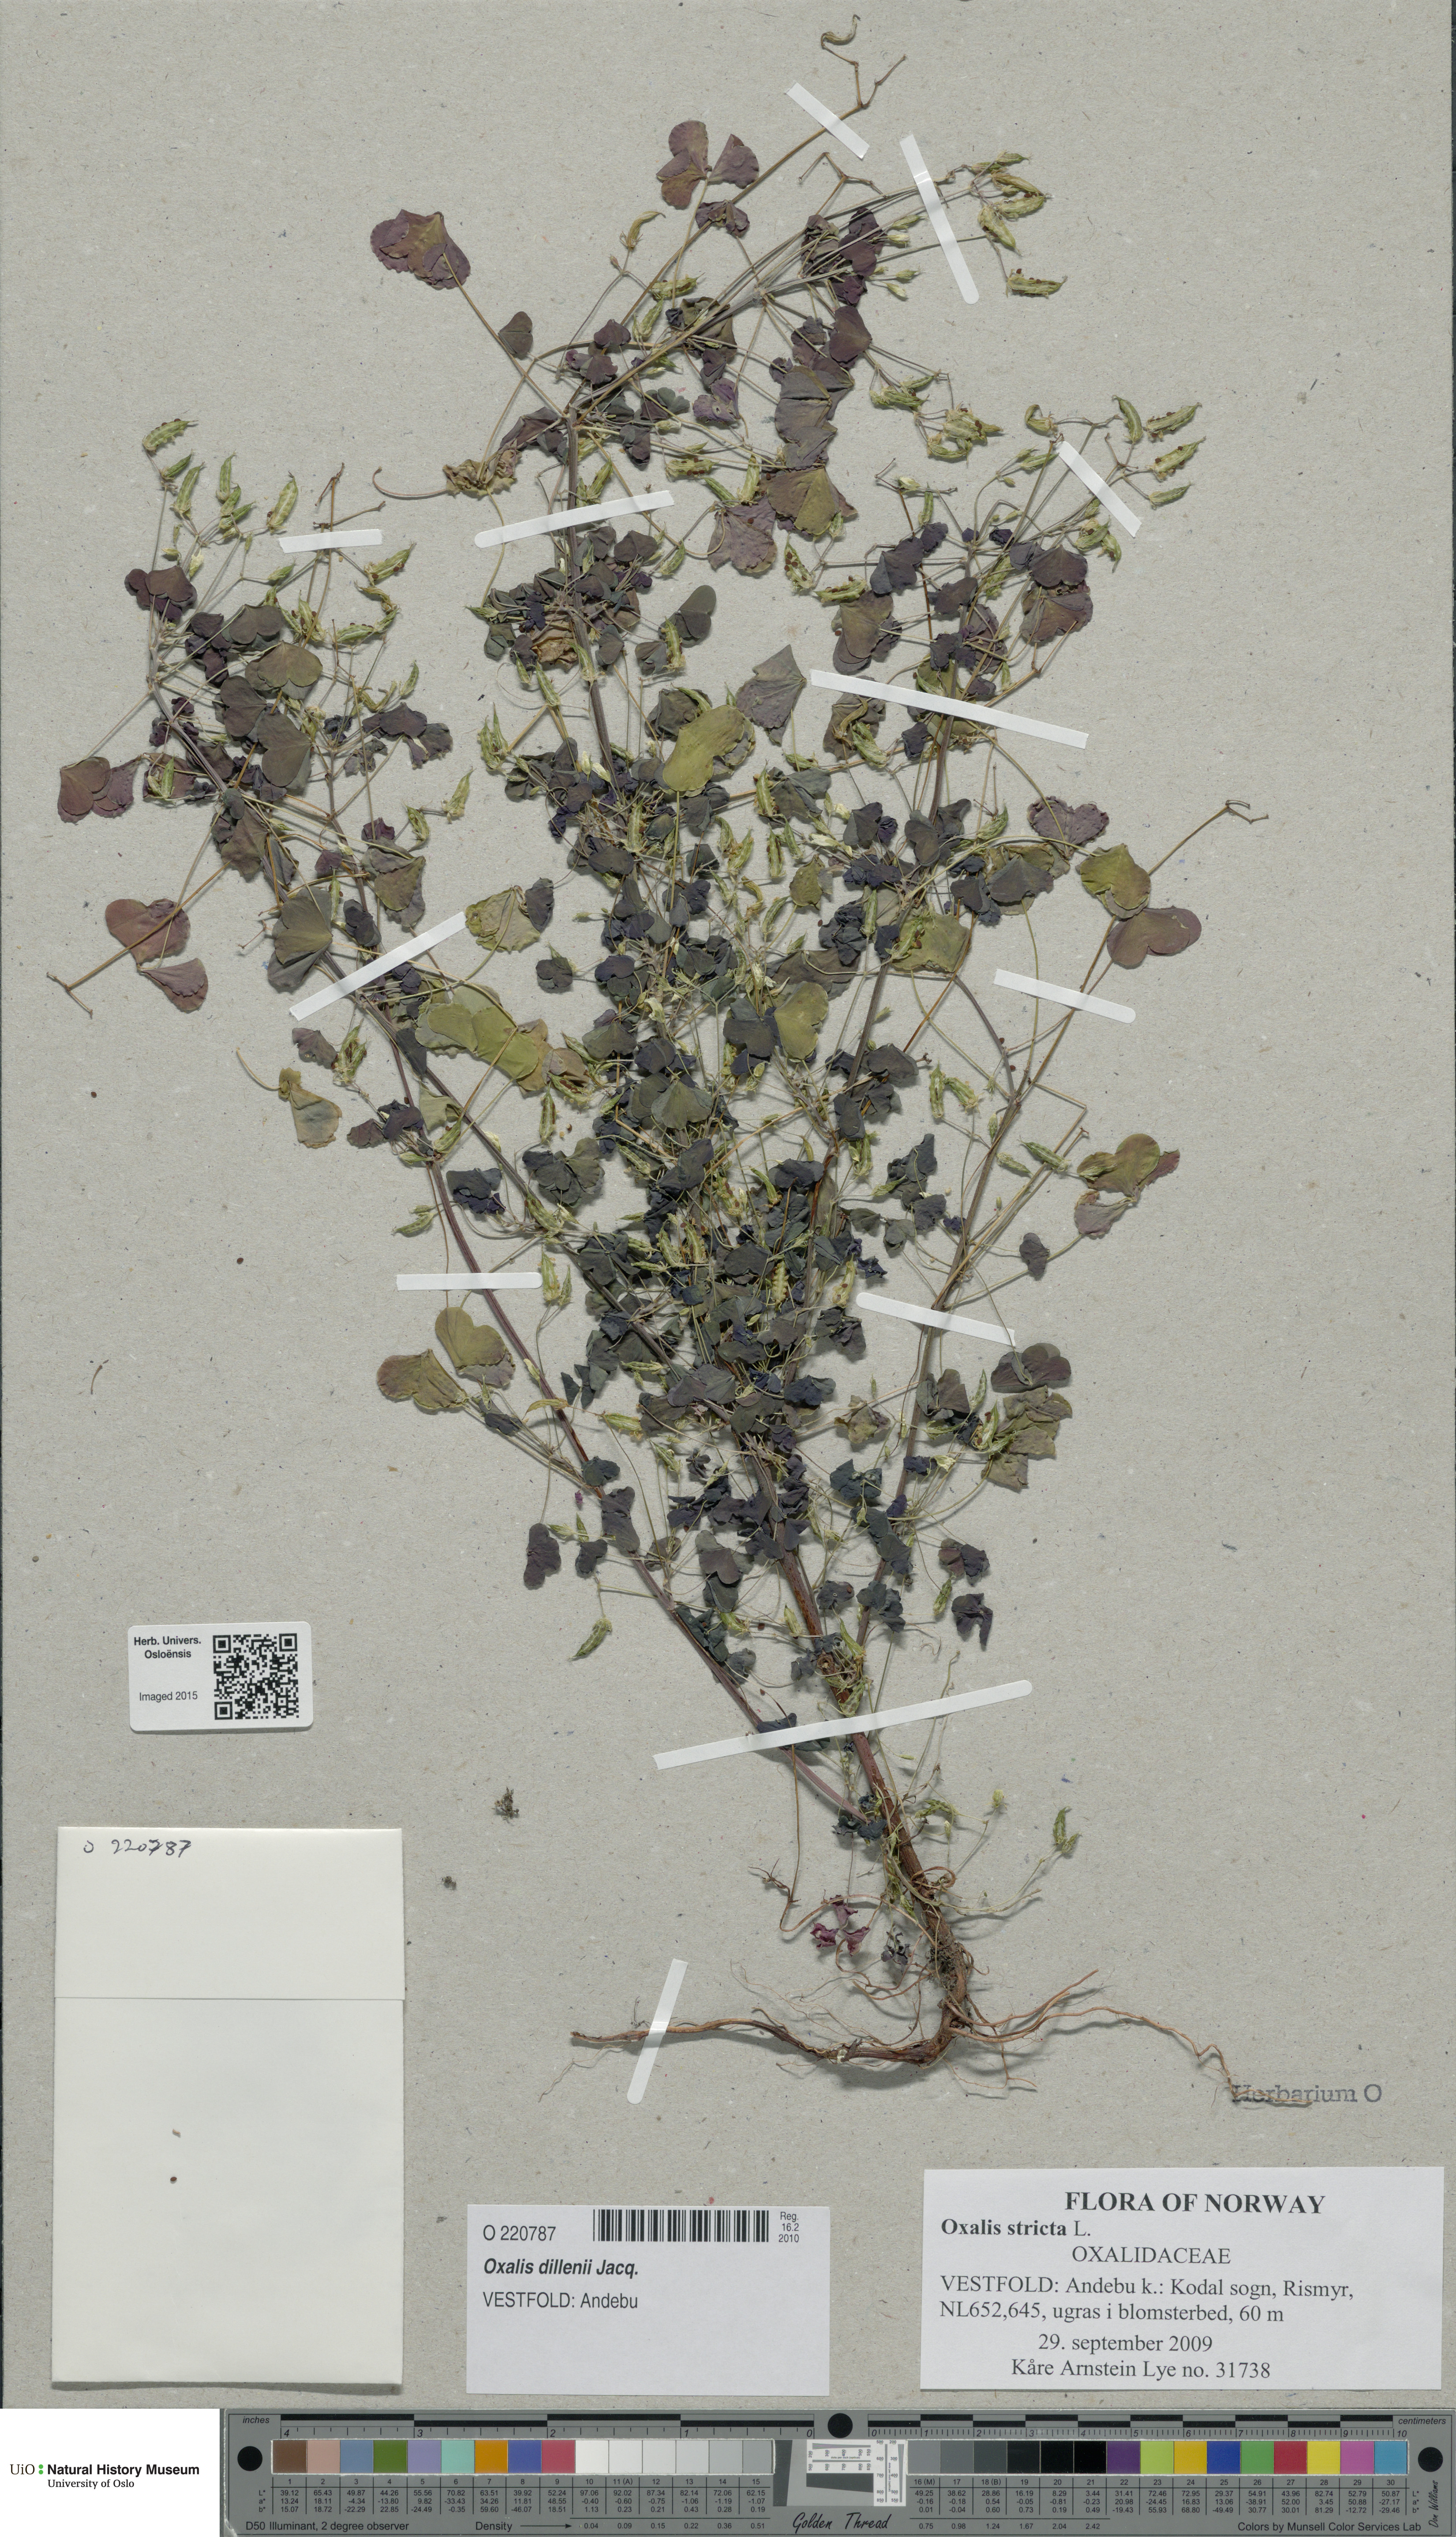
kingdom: Plantae
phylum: Tracheophyta
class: Magnoliopsida
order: Oxalidales
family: Oxalidaceae
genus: Oxalis
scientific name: Oxalis stricta
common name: Upright yellow-sorrel
